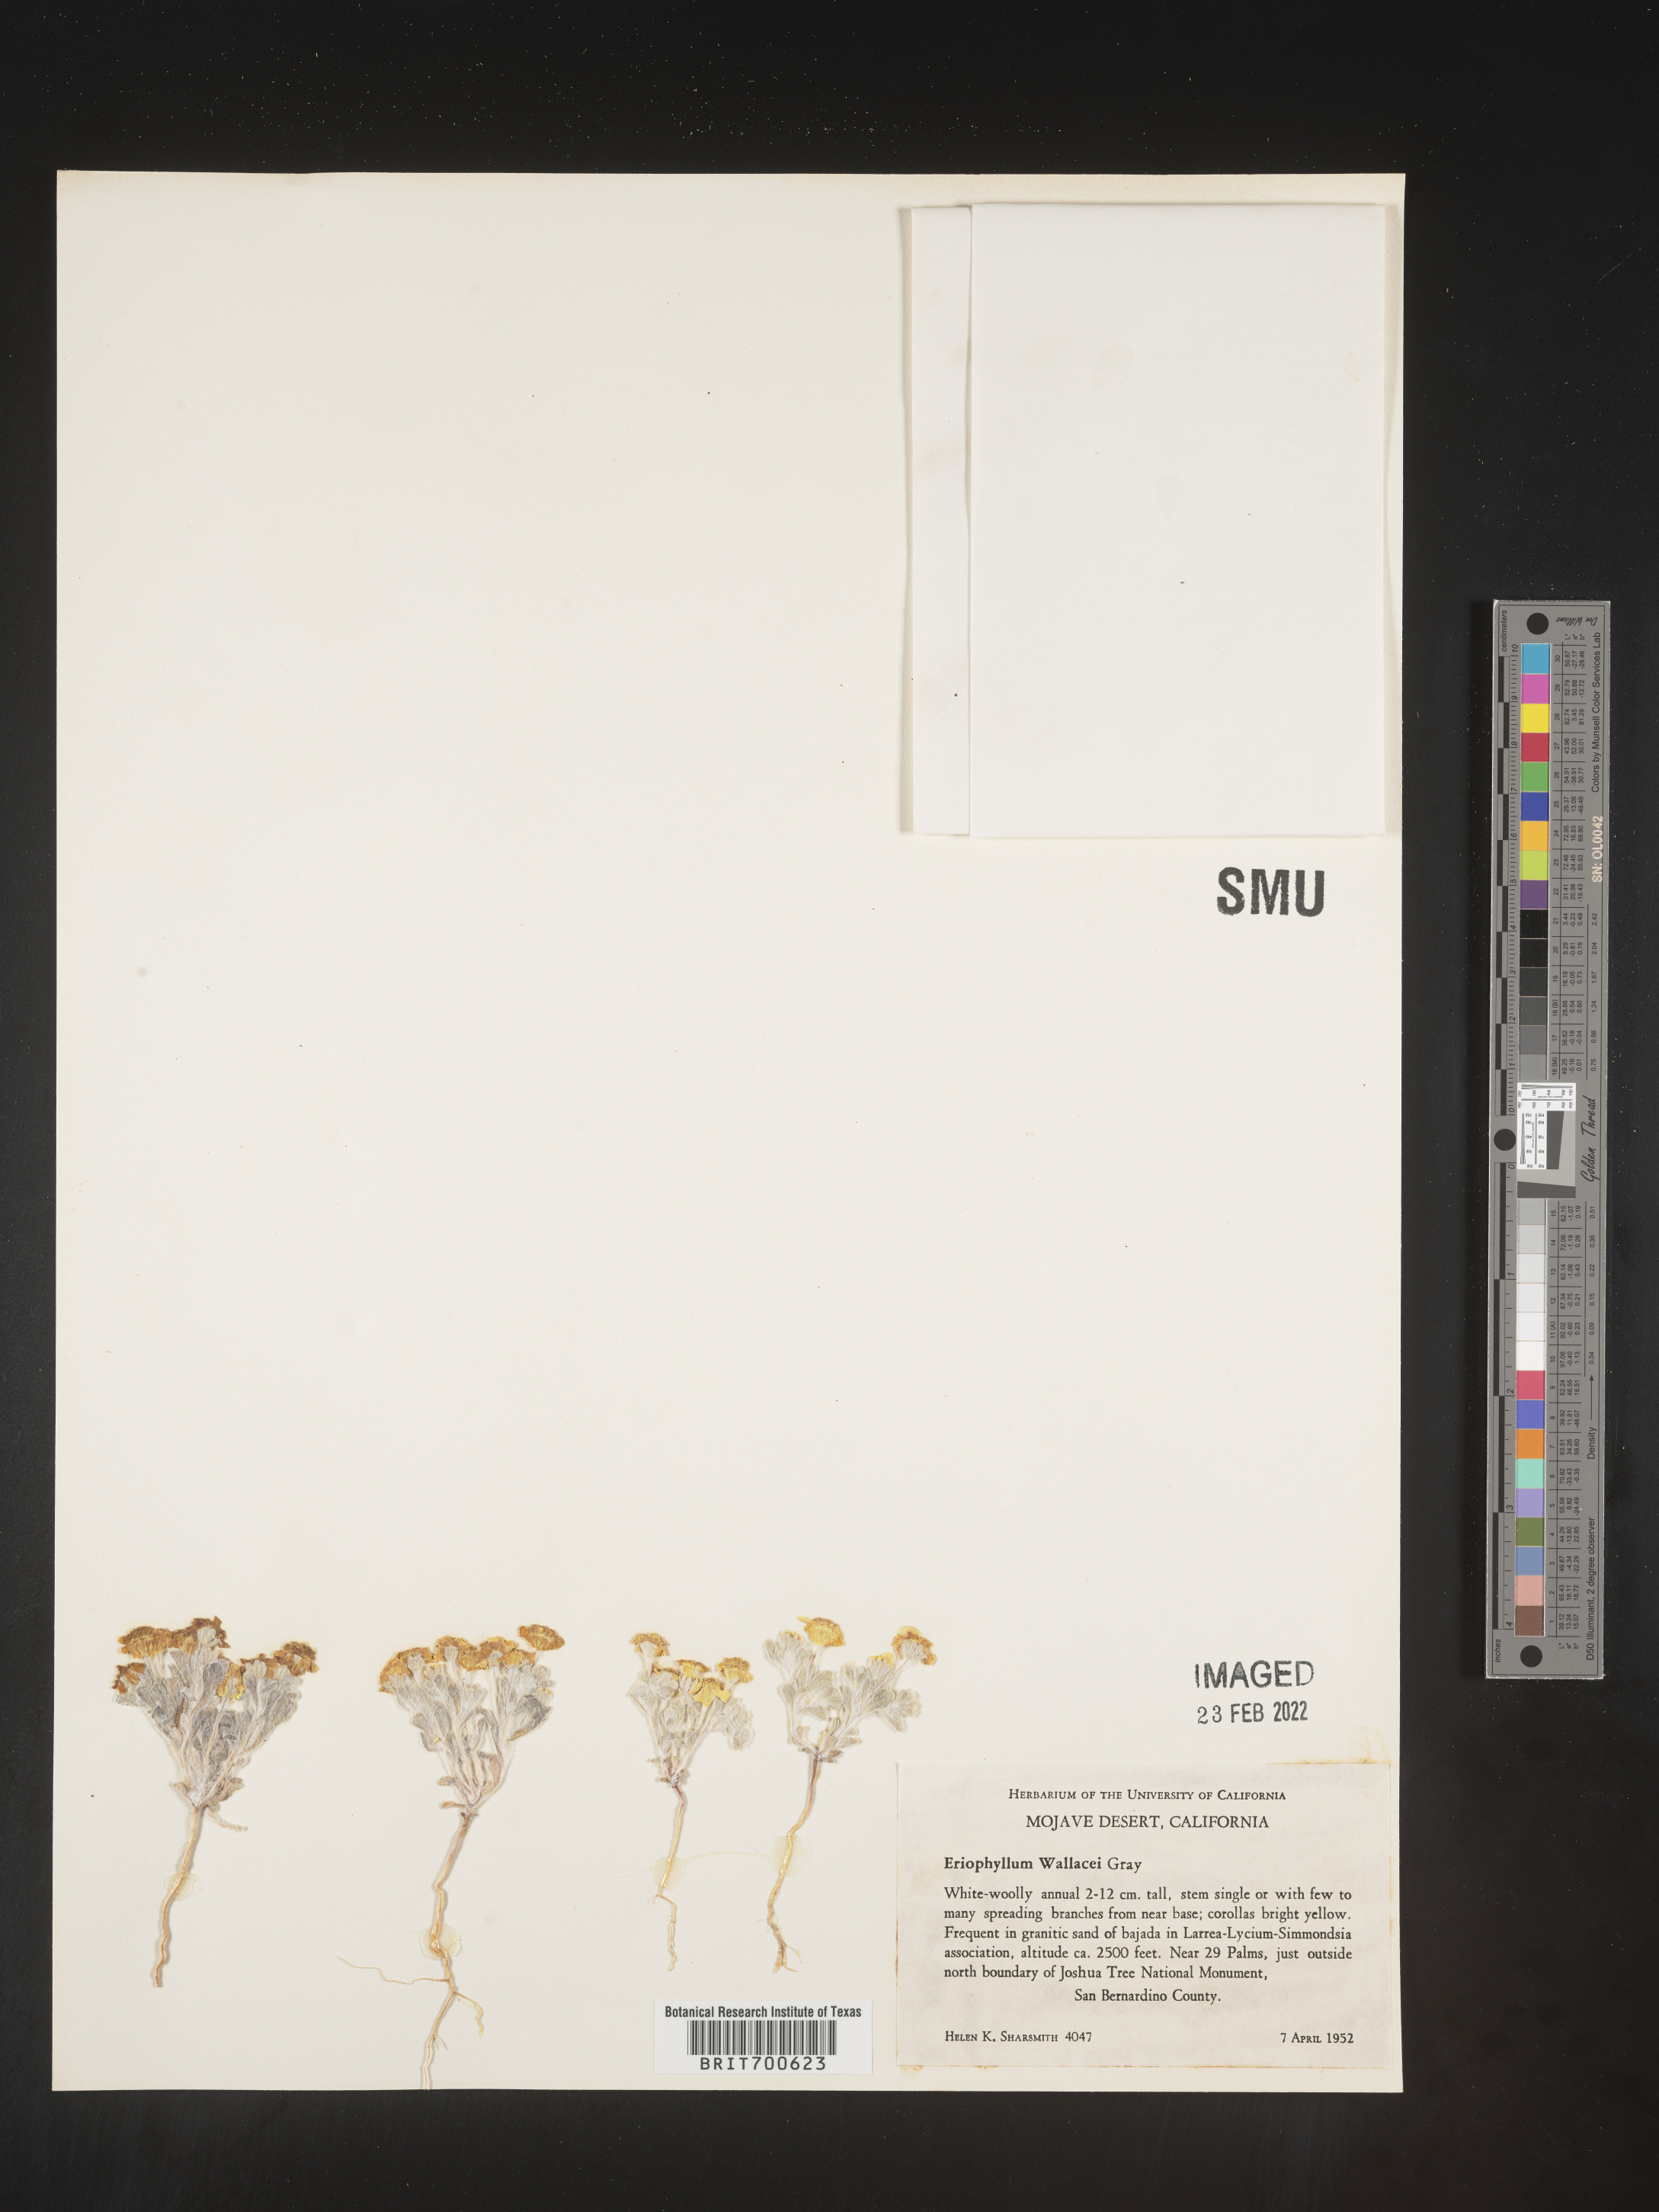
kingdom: Plantae
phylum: Tracheophyta
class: Magnoliopsida
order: Asterales
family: Asteraceae
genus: Eriophyllum
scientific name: Eriophyllum wallacei
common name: Wallace's woolly daisy
